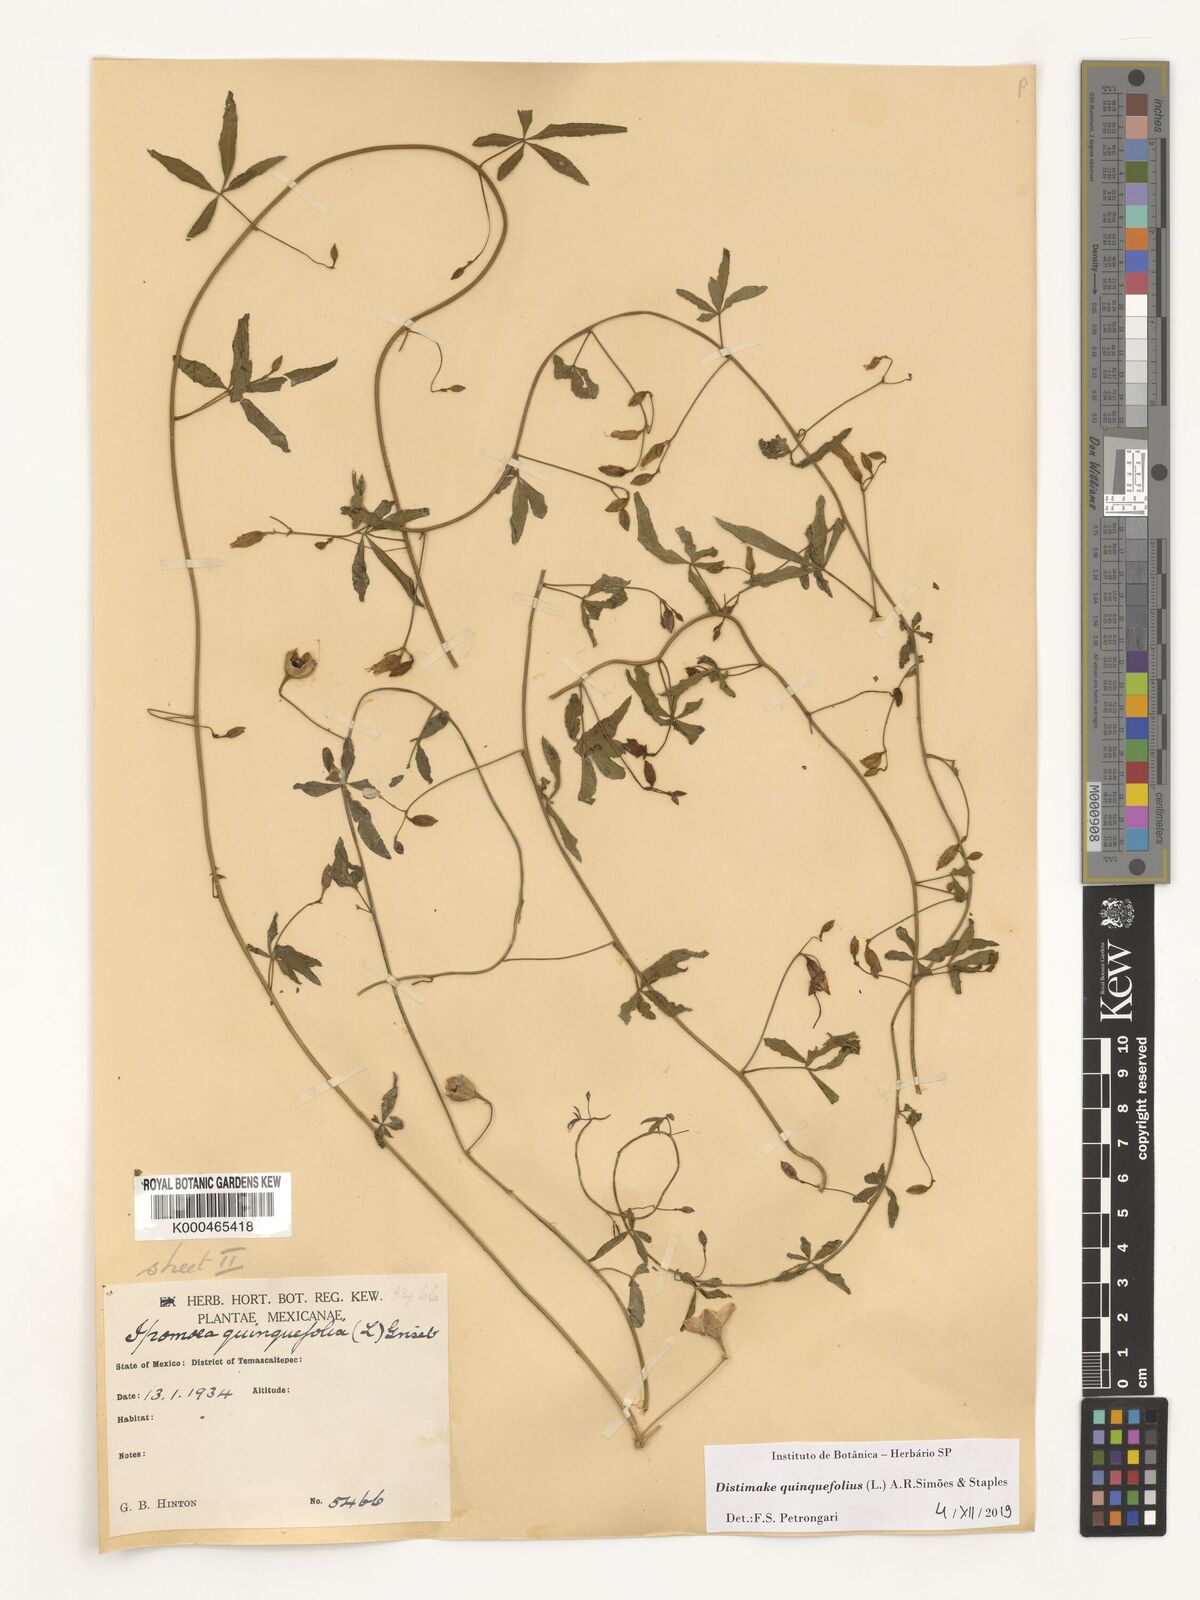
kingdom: Plantae
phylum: Tracheophyta
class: Magnoliopsida
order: Solanales
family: Convolvulaceae
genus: Distimake
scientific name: Distimake quinquefolius
